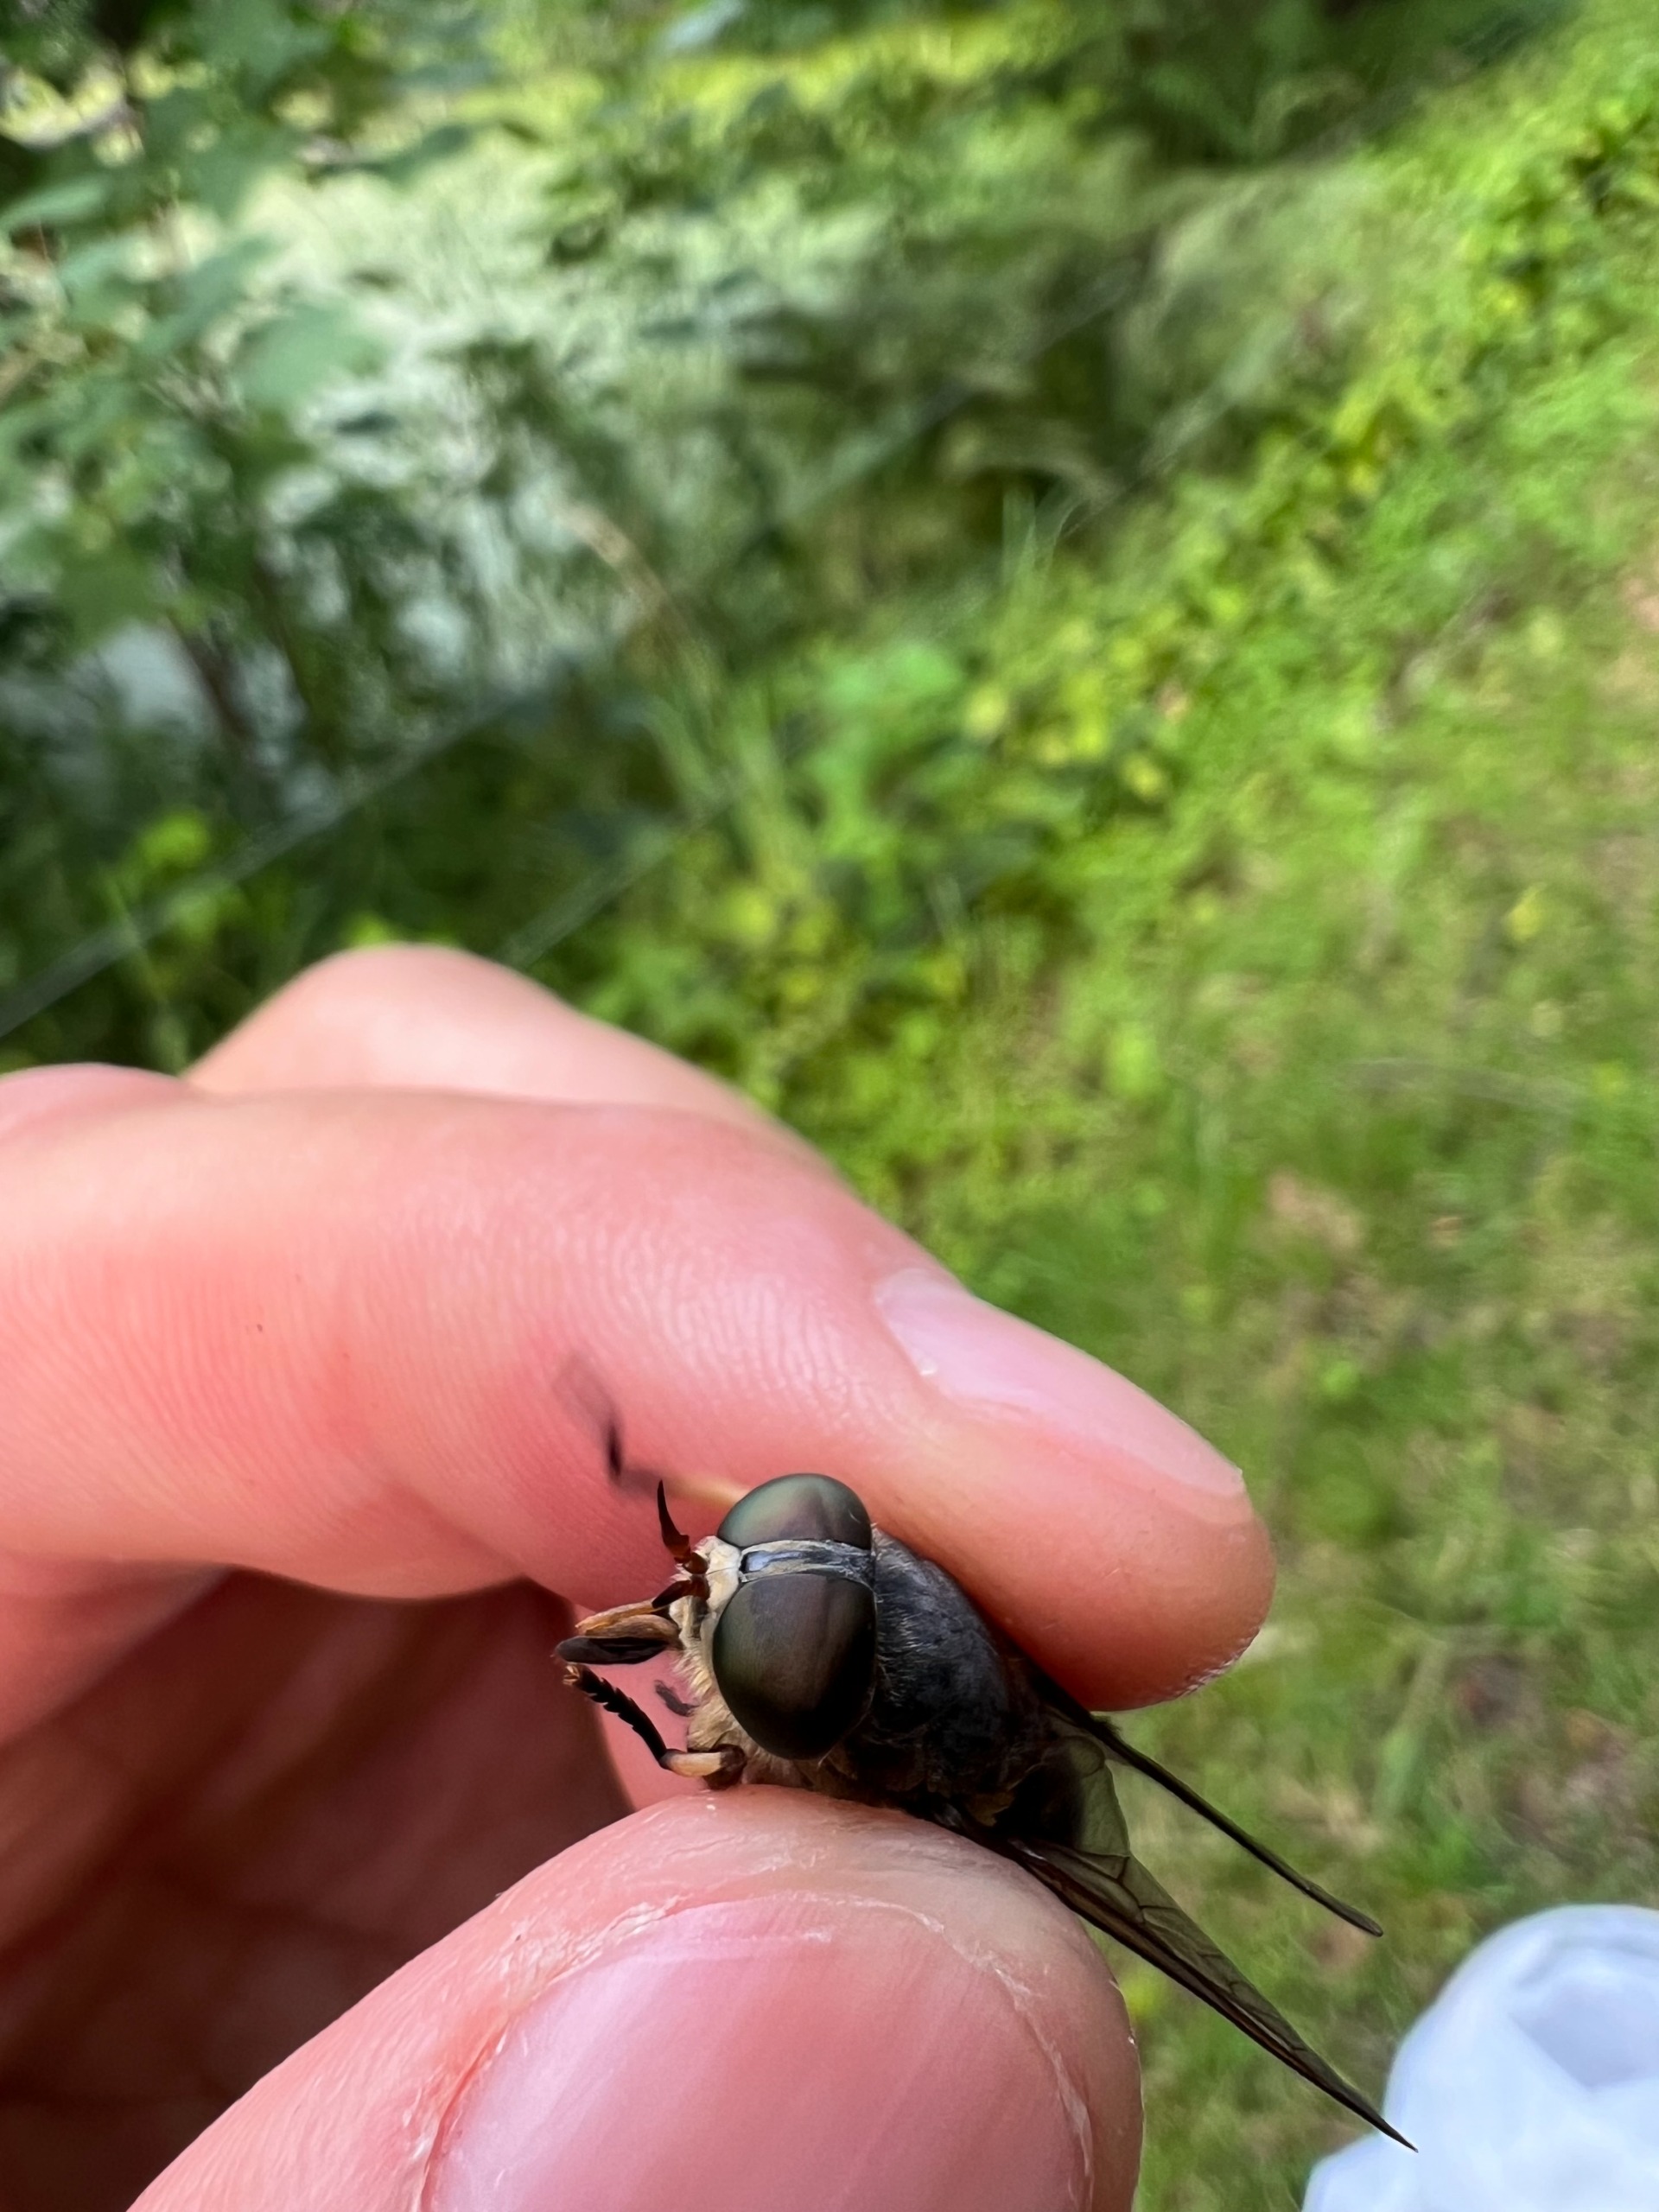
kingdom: Animalia
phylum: Arthropoda
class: Insecta
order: Diptera
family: Tabanidae
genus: Tabanus
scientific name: Tabanus sudeticus
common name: Hesteklæg
